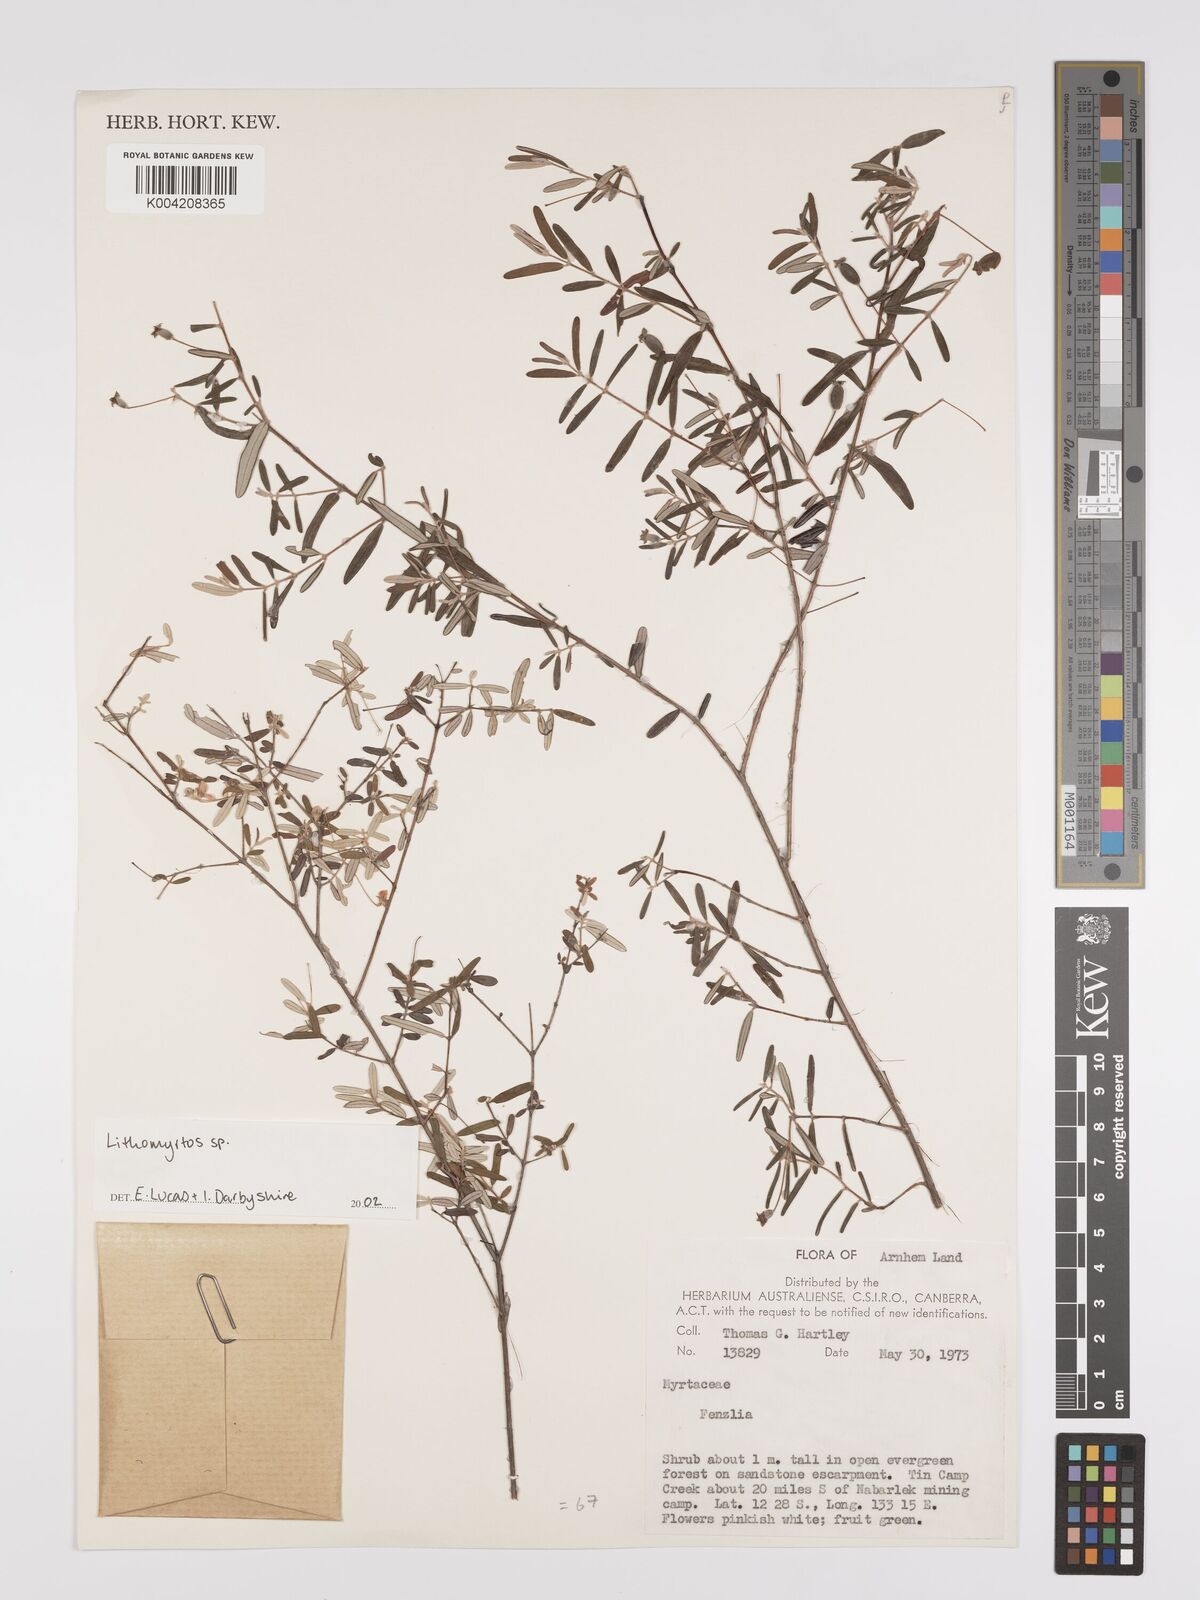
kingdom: Plantae
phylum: Tracheophyta
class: Magnoliopsida
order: Myrtales
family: Myrtaceae
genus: Lithomyrtus
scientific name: Lithomyrtus
